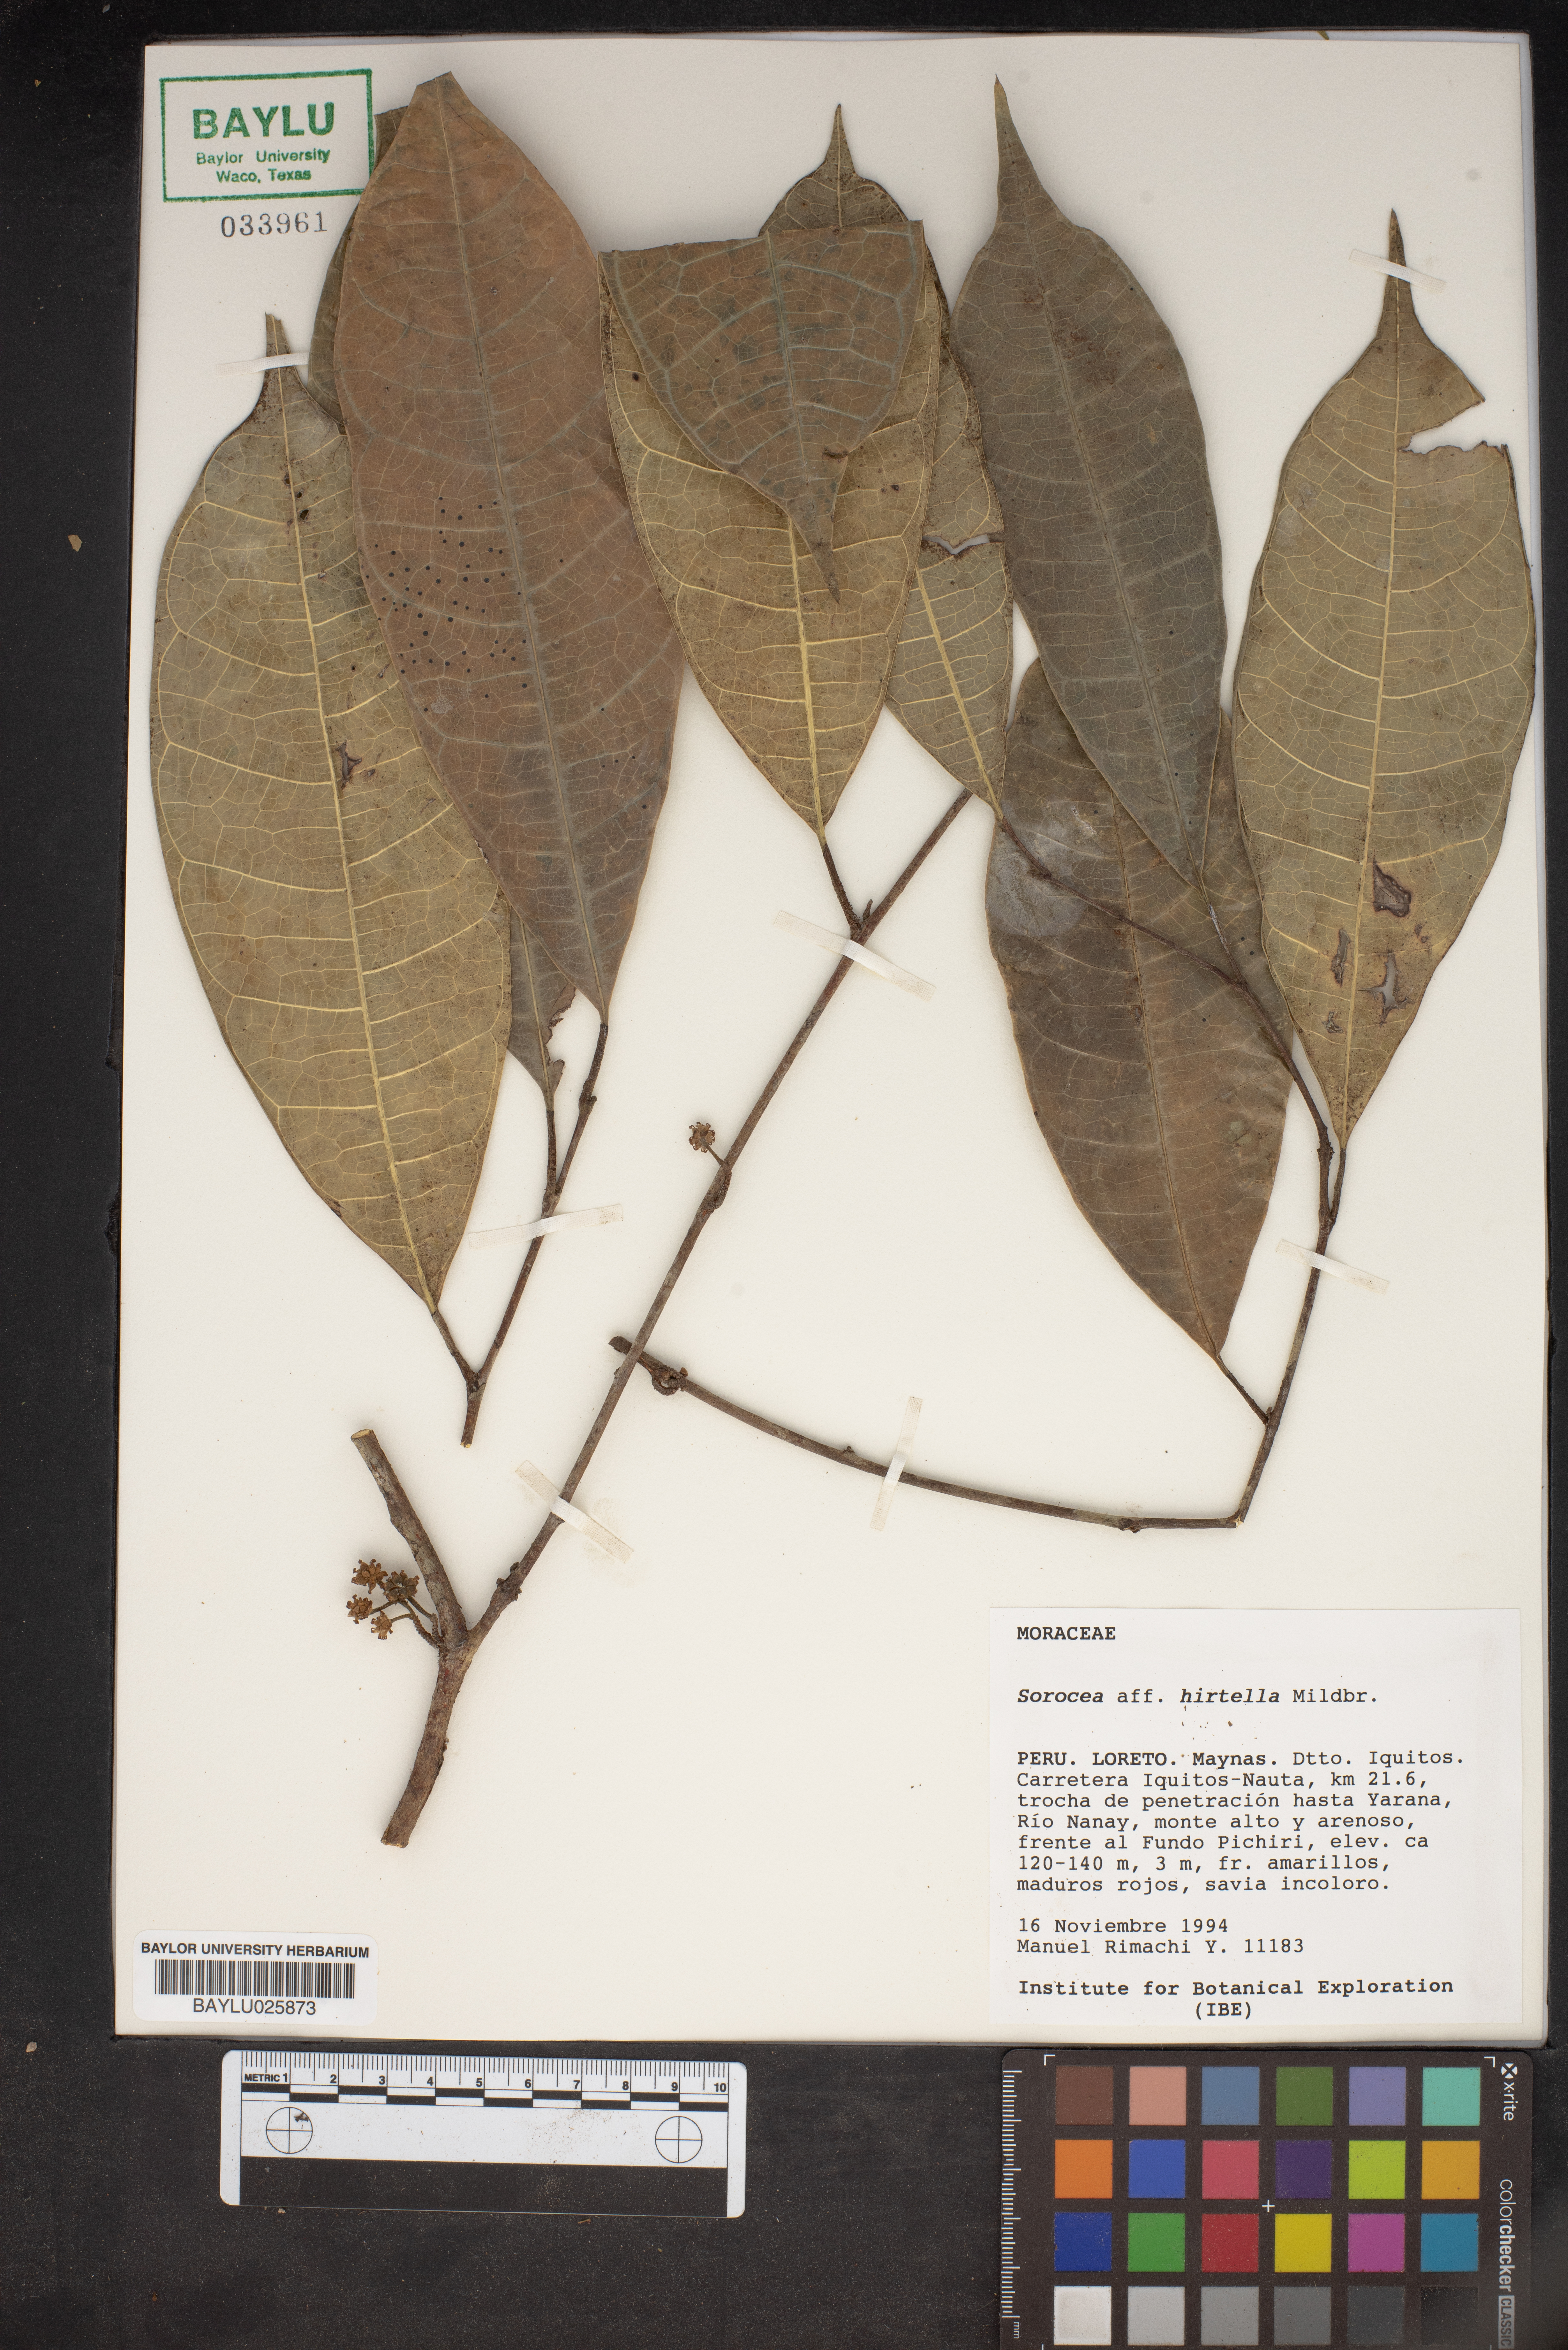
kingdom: Plantae
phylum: Tracheophyta
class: Magnoliopsida
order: Rosales
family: Moraceae
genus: Sorocea
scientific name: Sorocea pubivena
